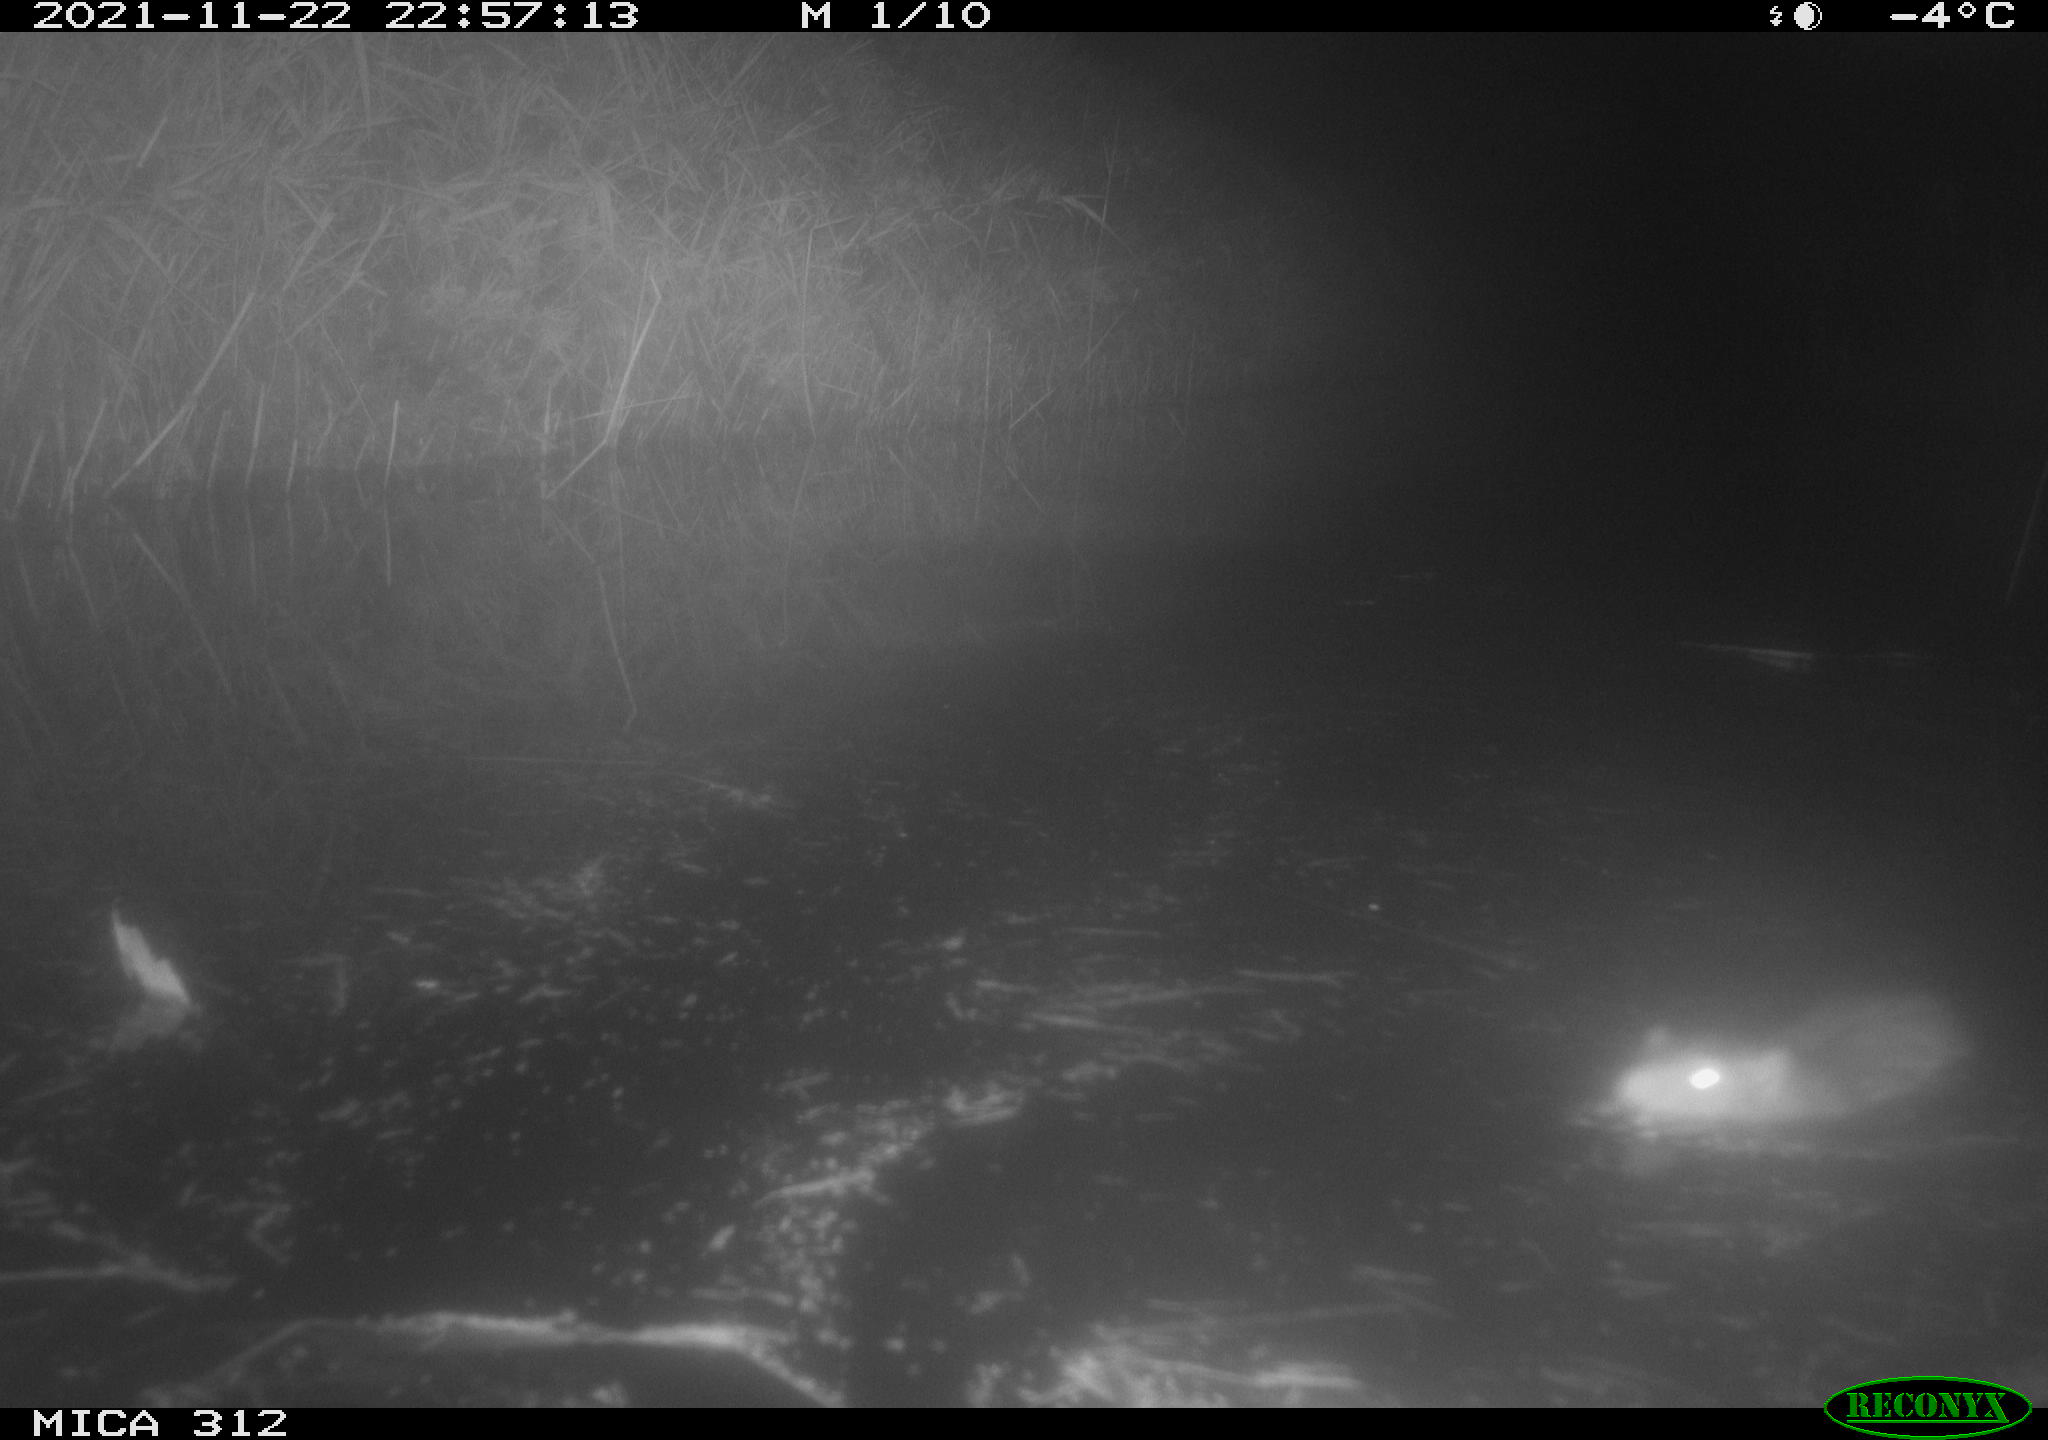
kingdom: Animalia
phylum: Chordata
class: Mammalia
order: Rodentia
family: Muridae
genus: Rattus
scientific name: Rattus norvegicus
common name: Brown rat
